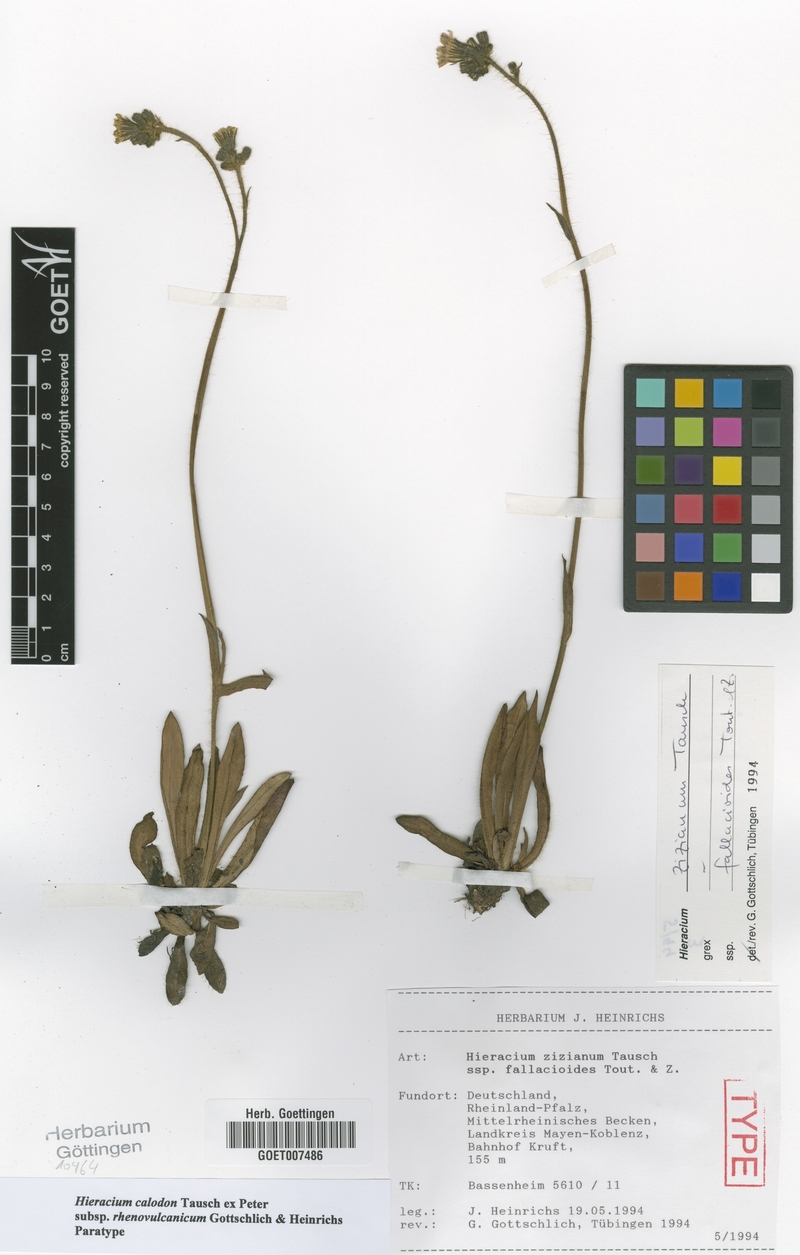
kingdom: Plantae
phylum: Tracheophyta
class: Magnoliopsida
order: Asterales
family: Asteraceae
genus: Pilosella
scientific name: Pilosella calodon
